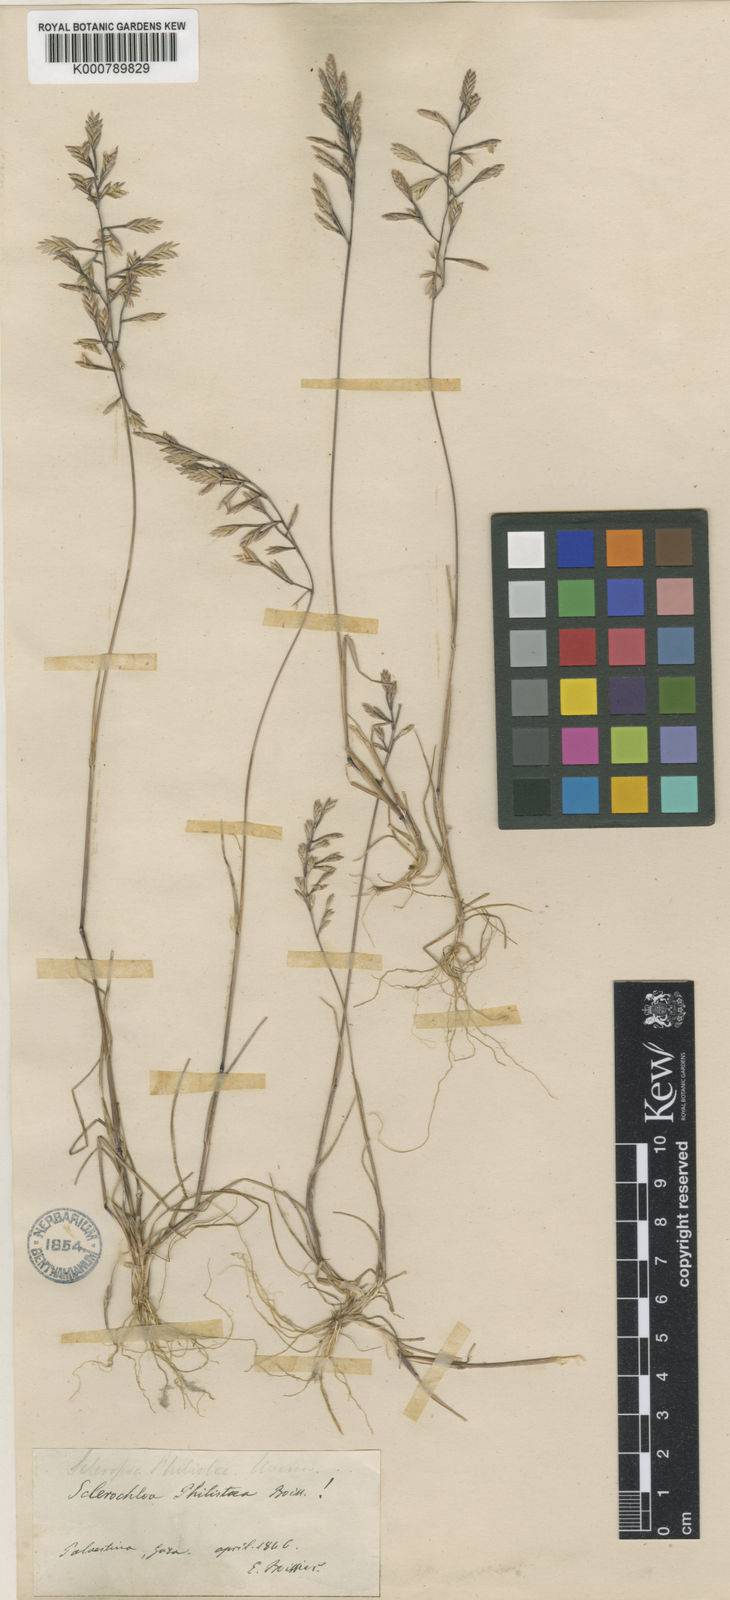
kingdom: Plantae
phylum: Tracheophyta
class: Liliopsida
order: Poales
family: Poaceae
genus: Desmazeria
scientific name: Desmazeria philistaea
